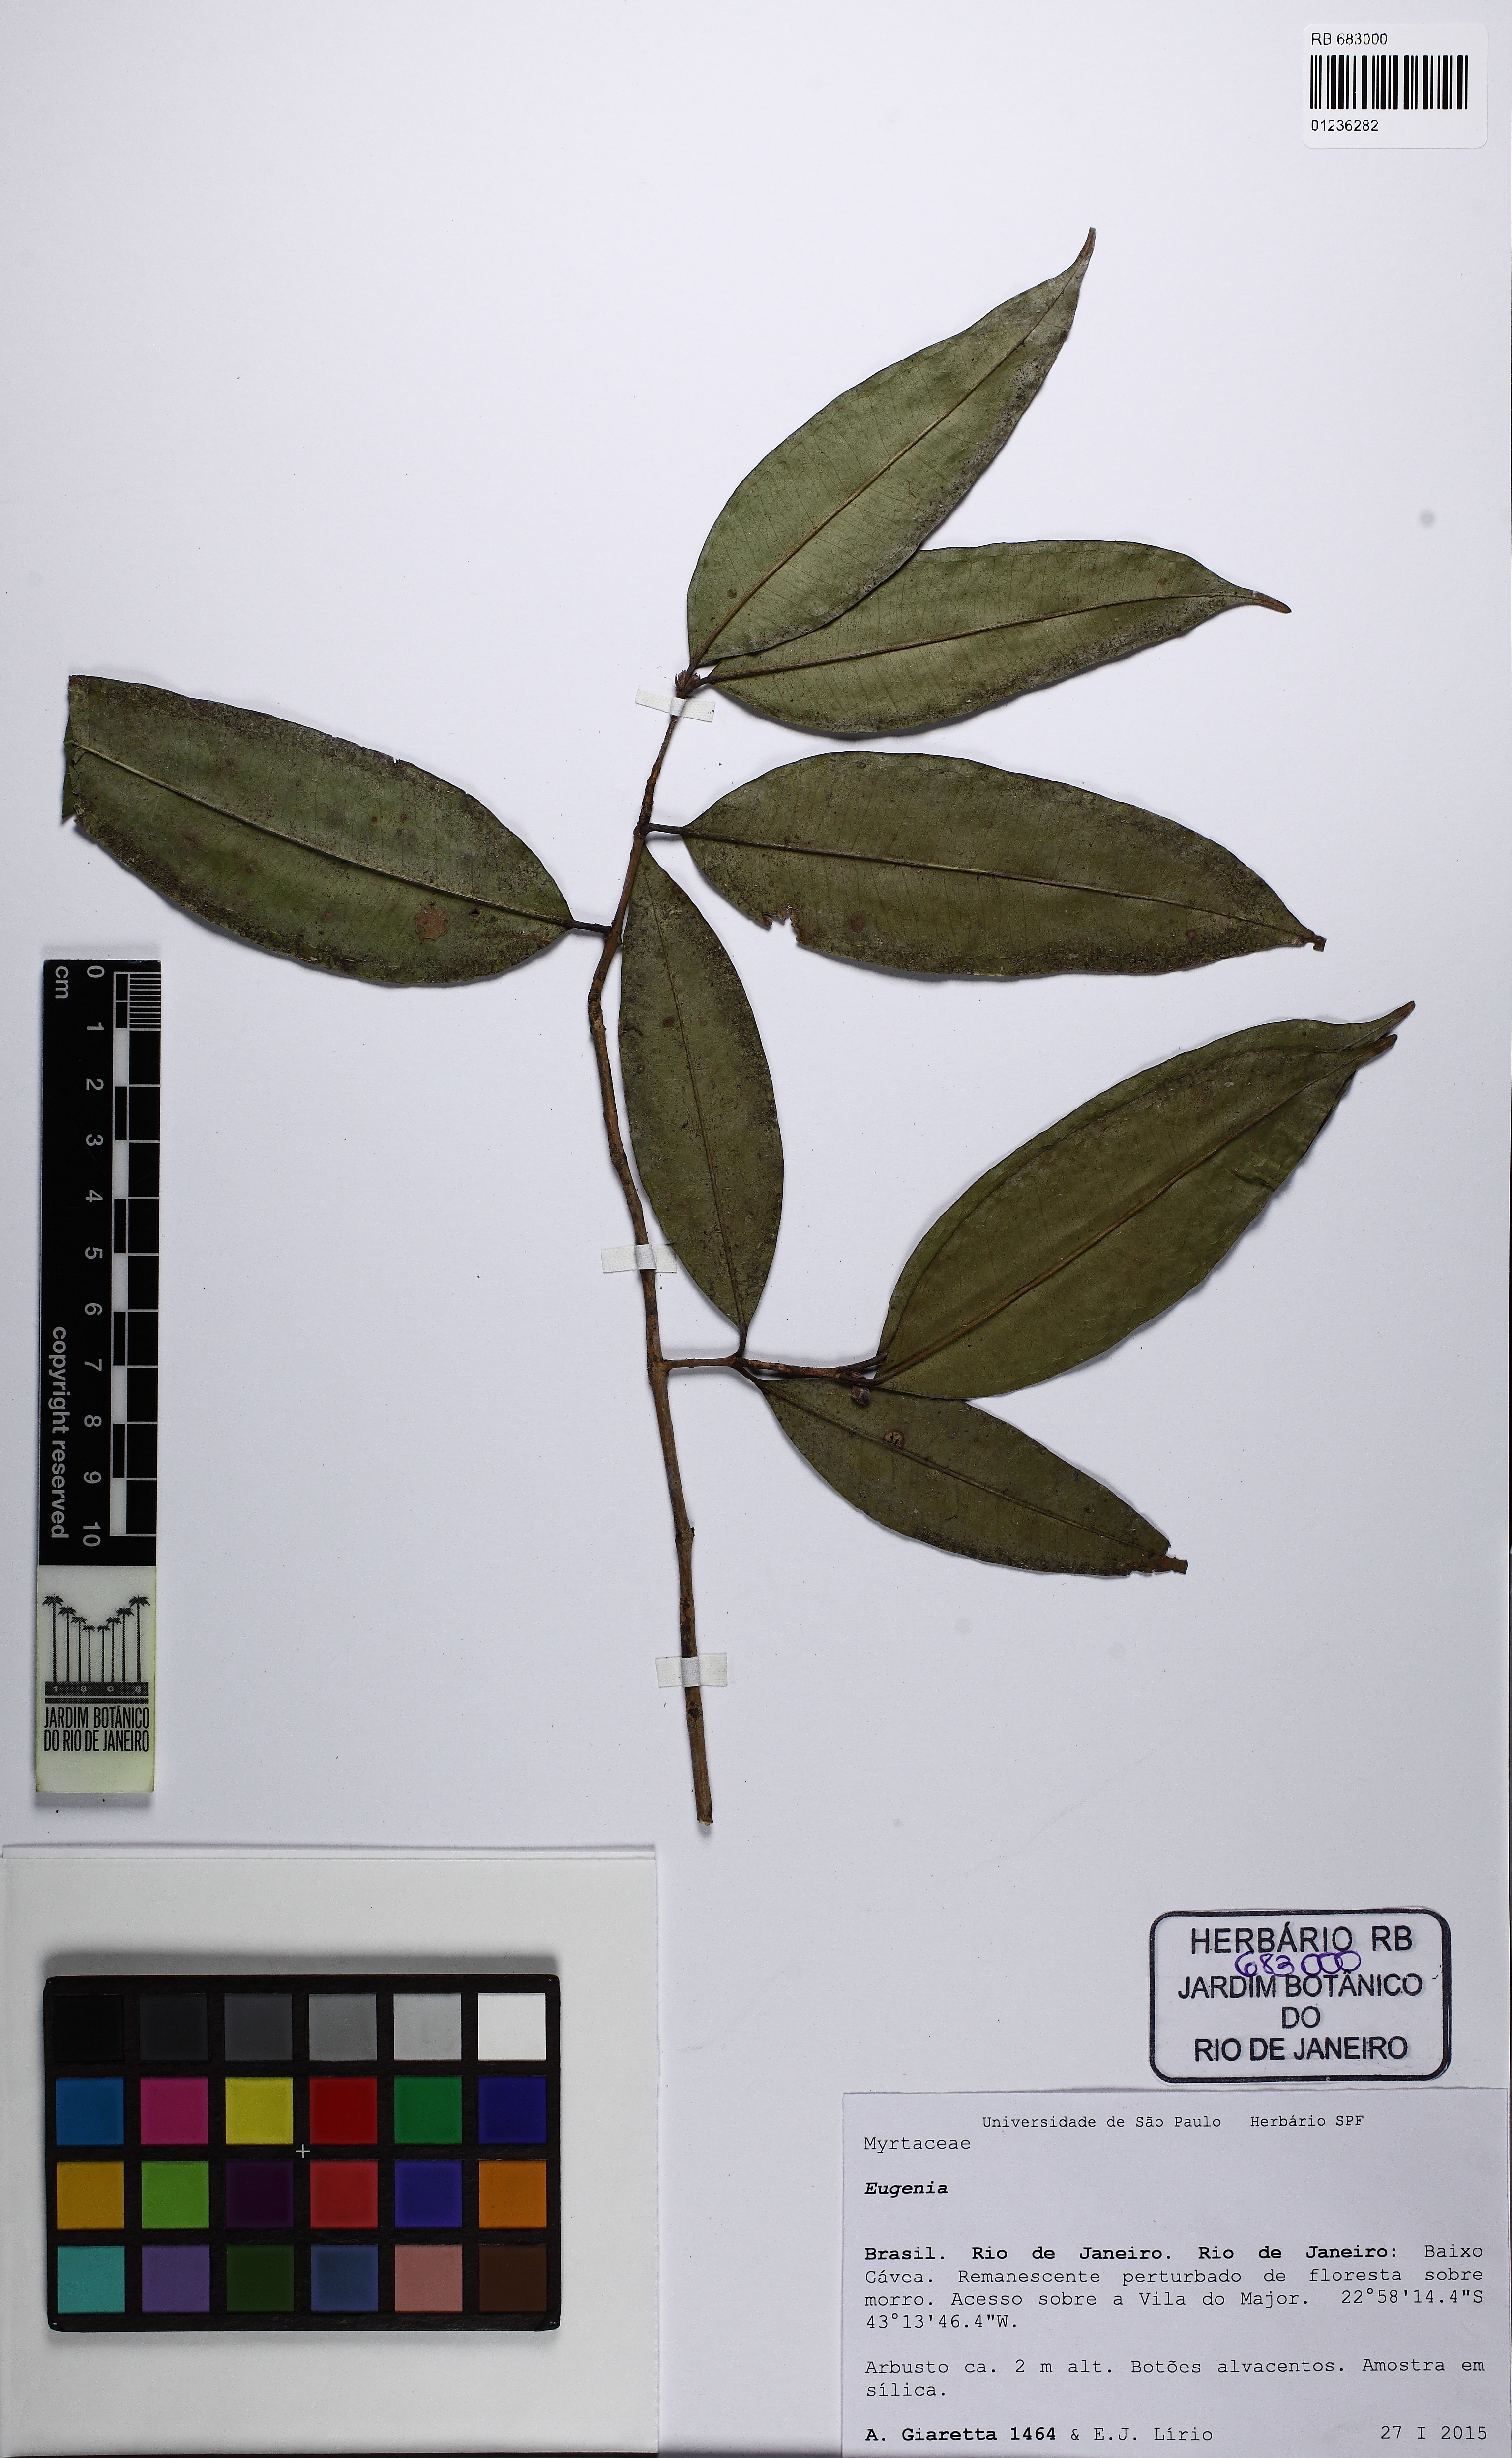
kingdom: Plantae
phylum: Tracheophyta
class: Magnoliopsida
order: Myrtales
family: Myrtaceae
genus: Eugenia
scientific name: Eugenia
